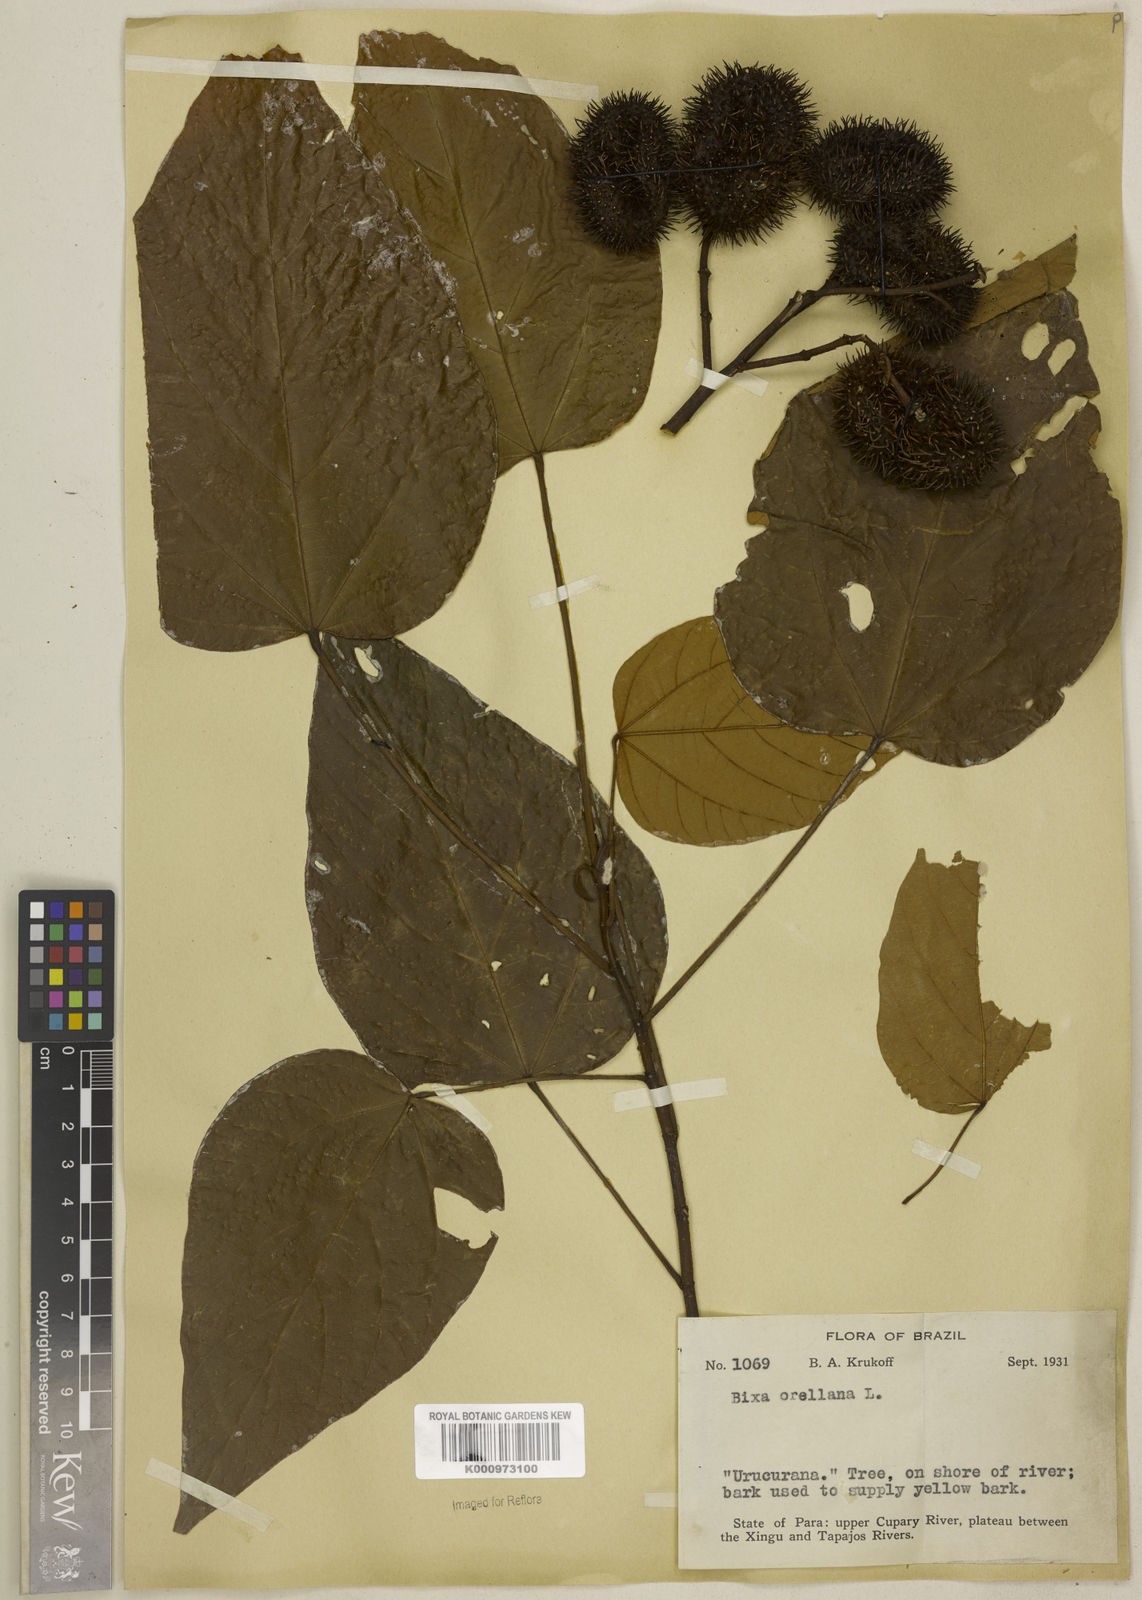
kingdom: Plantae
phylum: Tracheophyta
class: Magnoliopsida
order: Malvales
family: Bixaceae
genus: Bixa
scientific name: Bixa excelsa
